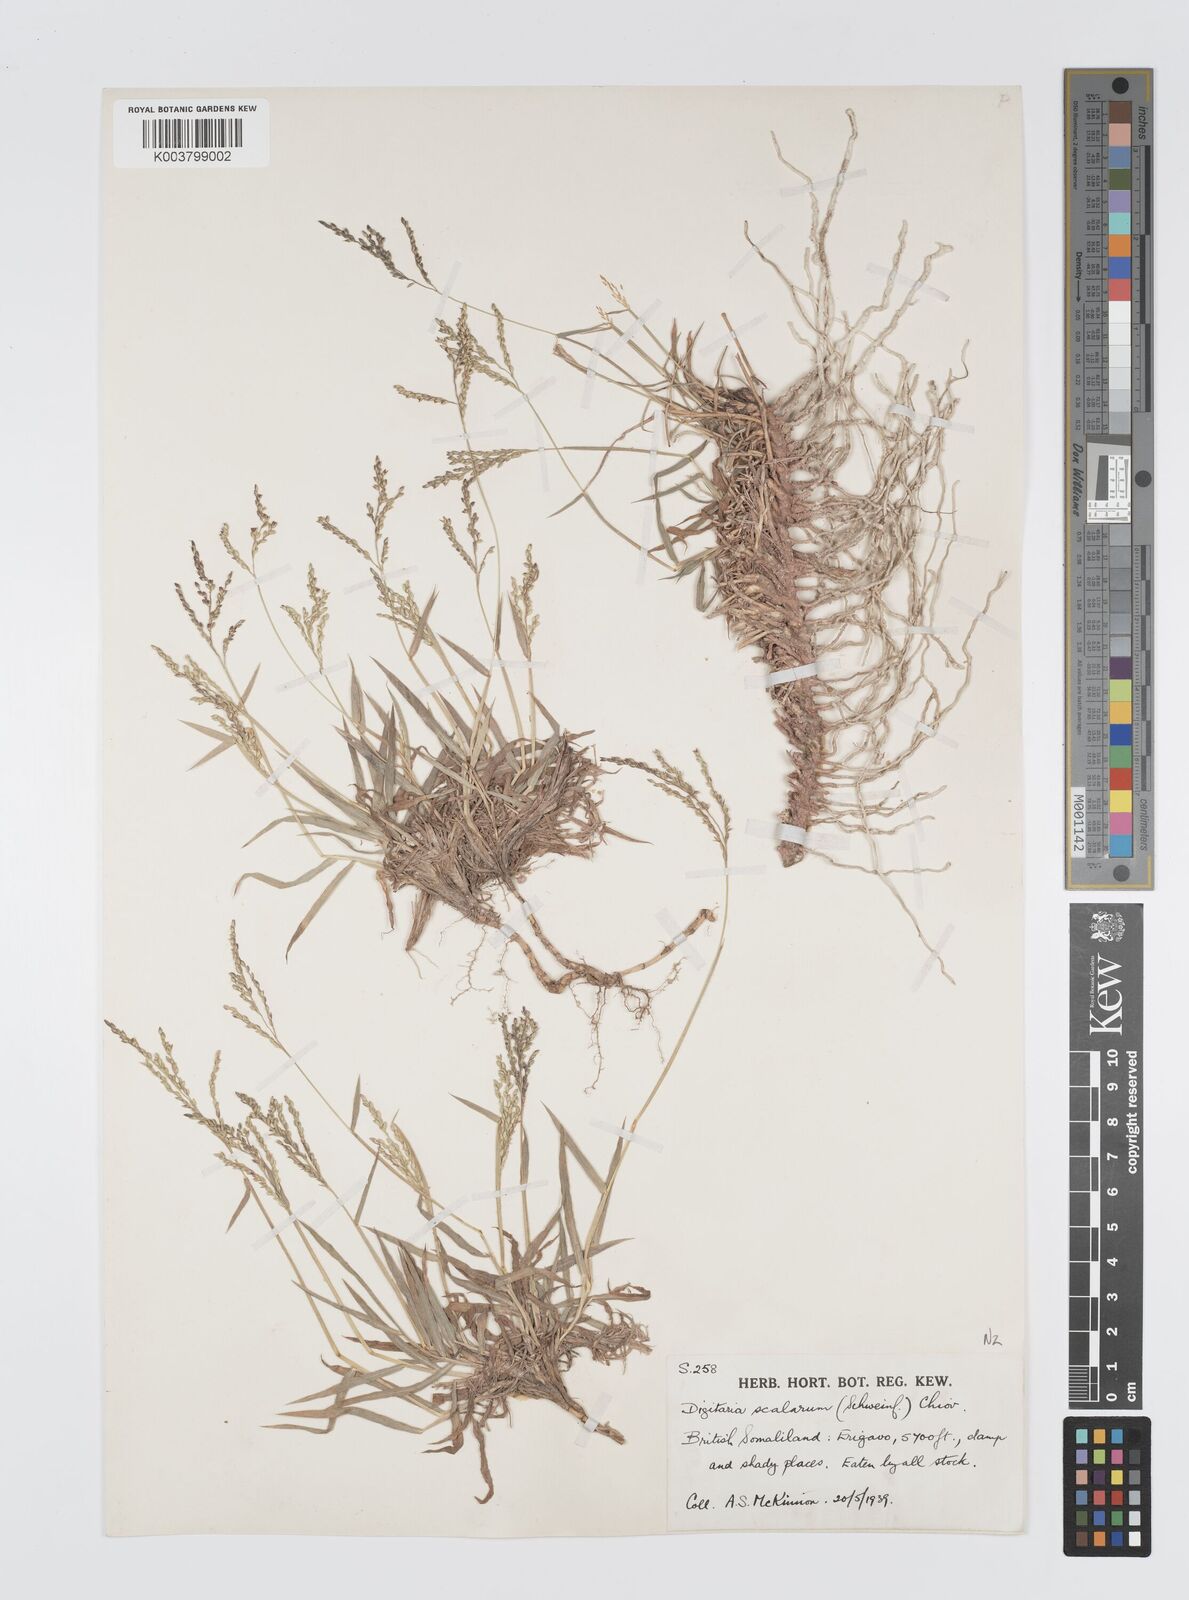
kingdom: Plantae
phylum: Tracheophyta
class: Liliopsida
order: Poales
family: Poaceae
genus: Digitaria
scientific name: Digitaria abyssinica
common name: African couchgrass
